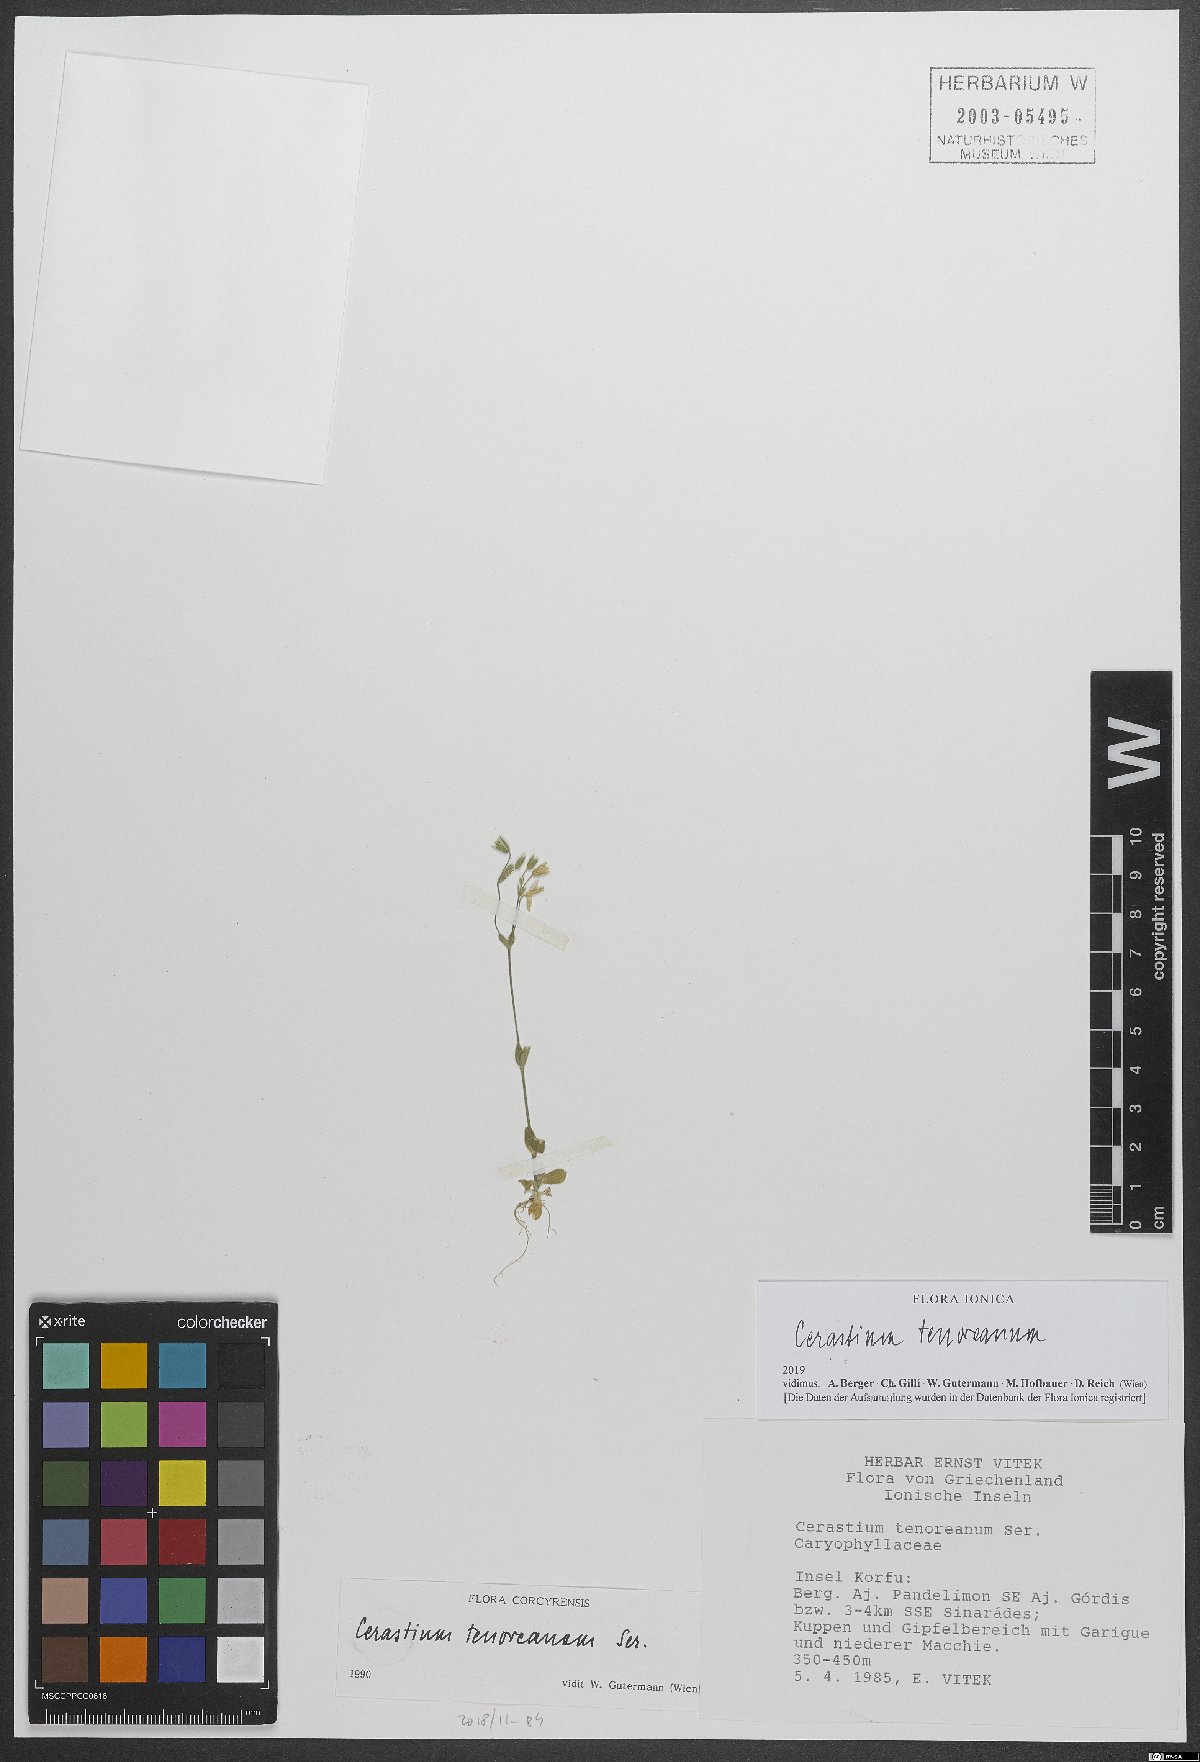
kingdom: Plantae
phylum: Tracheophyta
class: Magnoliopsida
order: Caryophyllales
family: Caryophyllaceae
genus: Cerastium
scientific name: Cerastium tenoreanum
